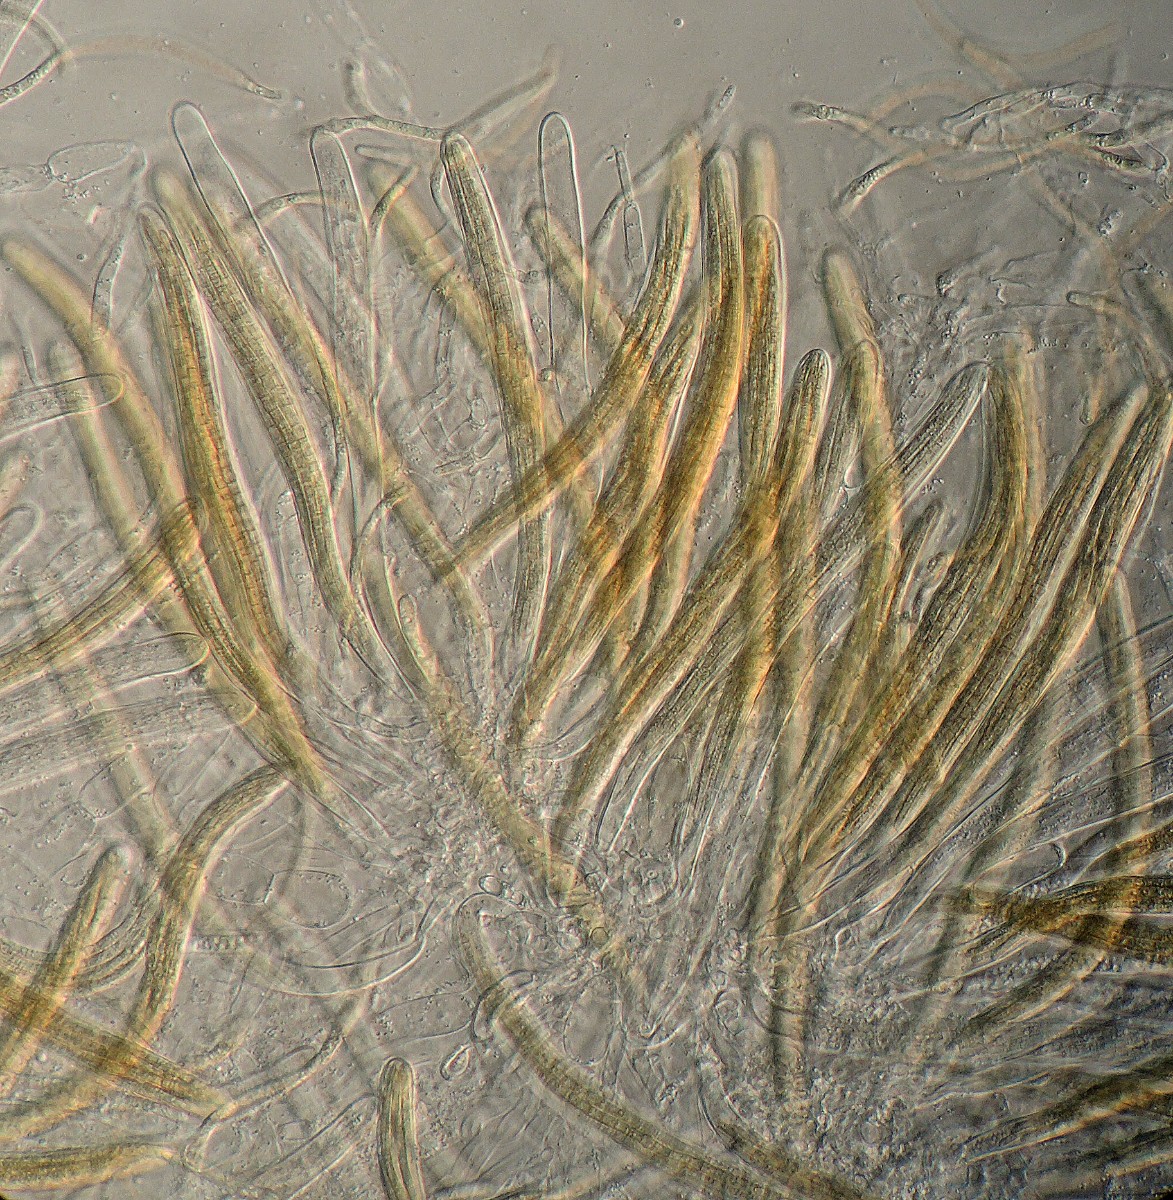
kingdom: Fungi
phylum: Ascomycota
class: Dothideomycetes
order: Pleosporales
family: Phaeosphaeriaceae
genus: Ophiobolus
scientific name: Ophiobolus acuminatus
